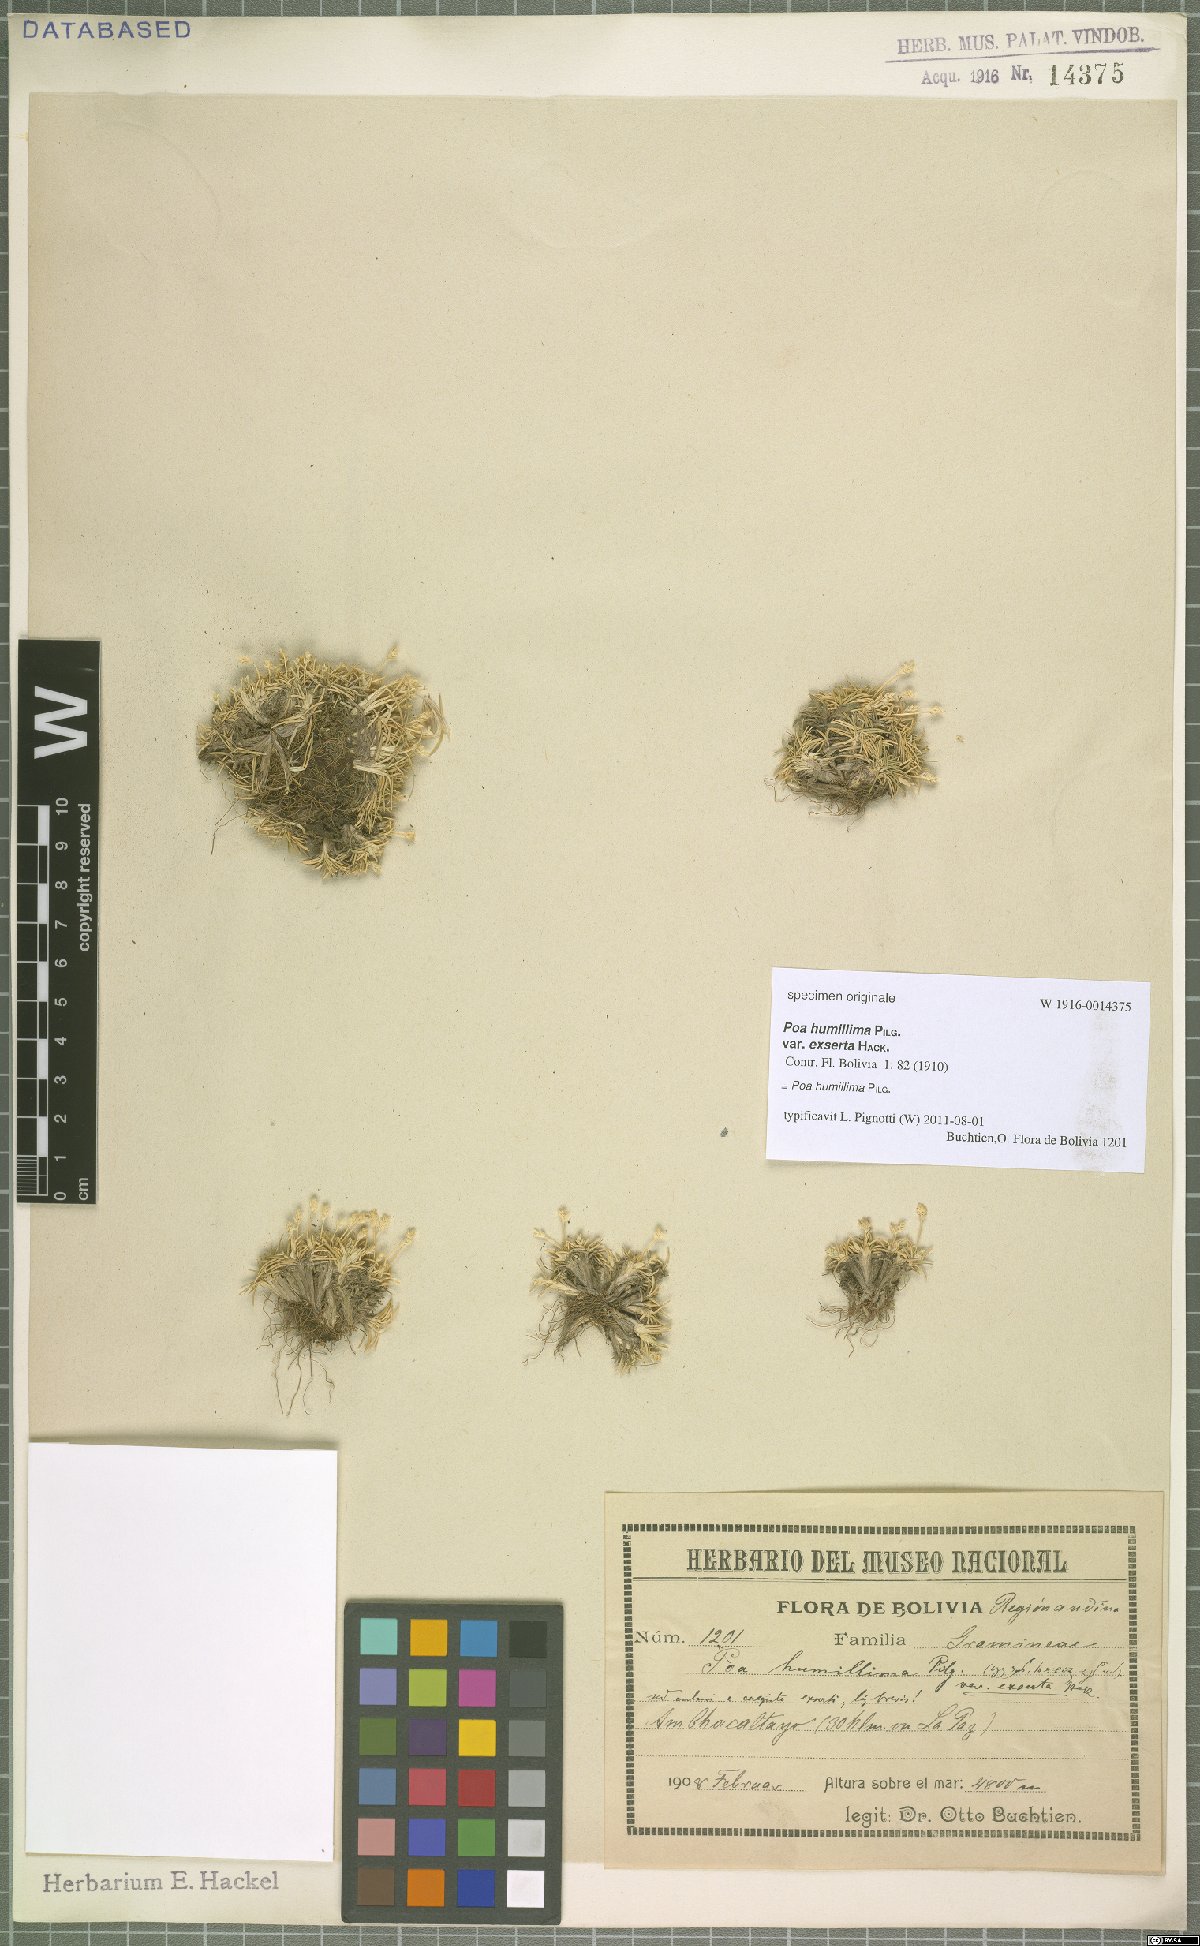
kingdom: Plantae
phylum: Tracheophyta
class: Liliopsida
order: Poales
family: Poaceae
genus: Poa
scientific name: Poa humillima
